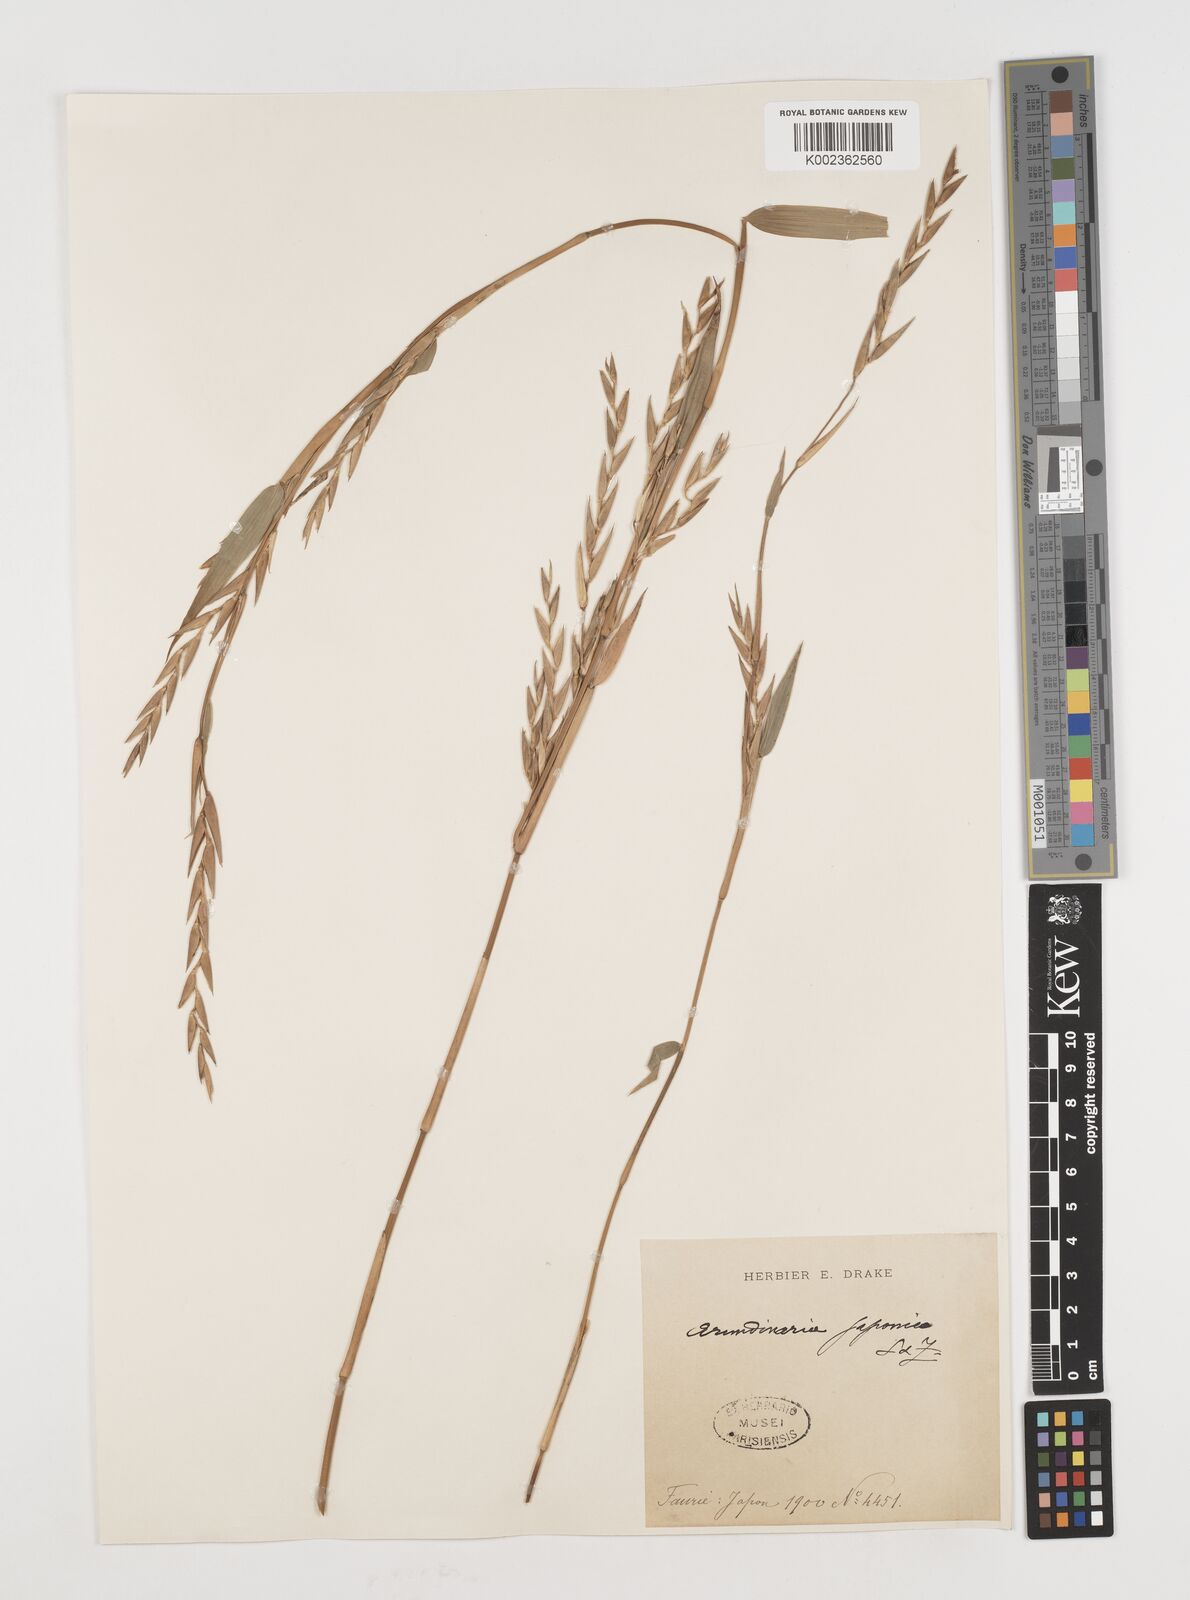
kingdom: Plantae
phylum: Tracheophyta
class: Liliopsida
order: Poales
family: Poaceae
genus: Pseudosasa
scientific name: Pseudosasa japonica
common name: Arrow bamboo
